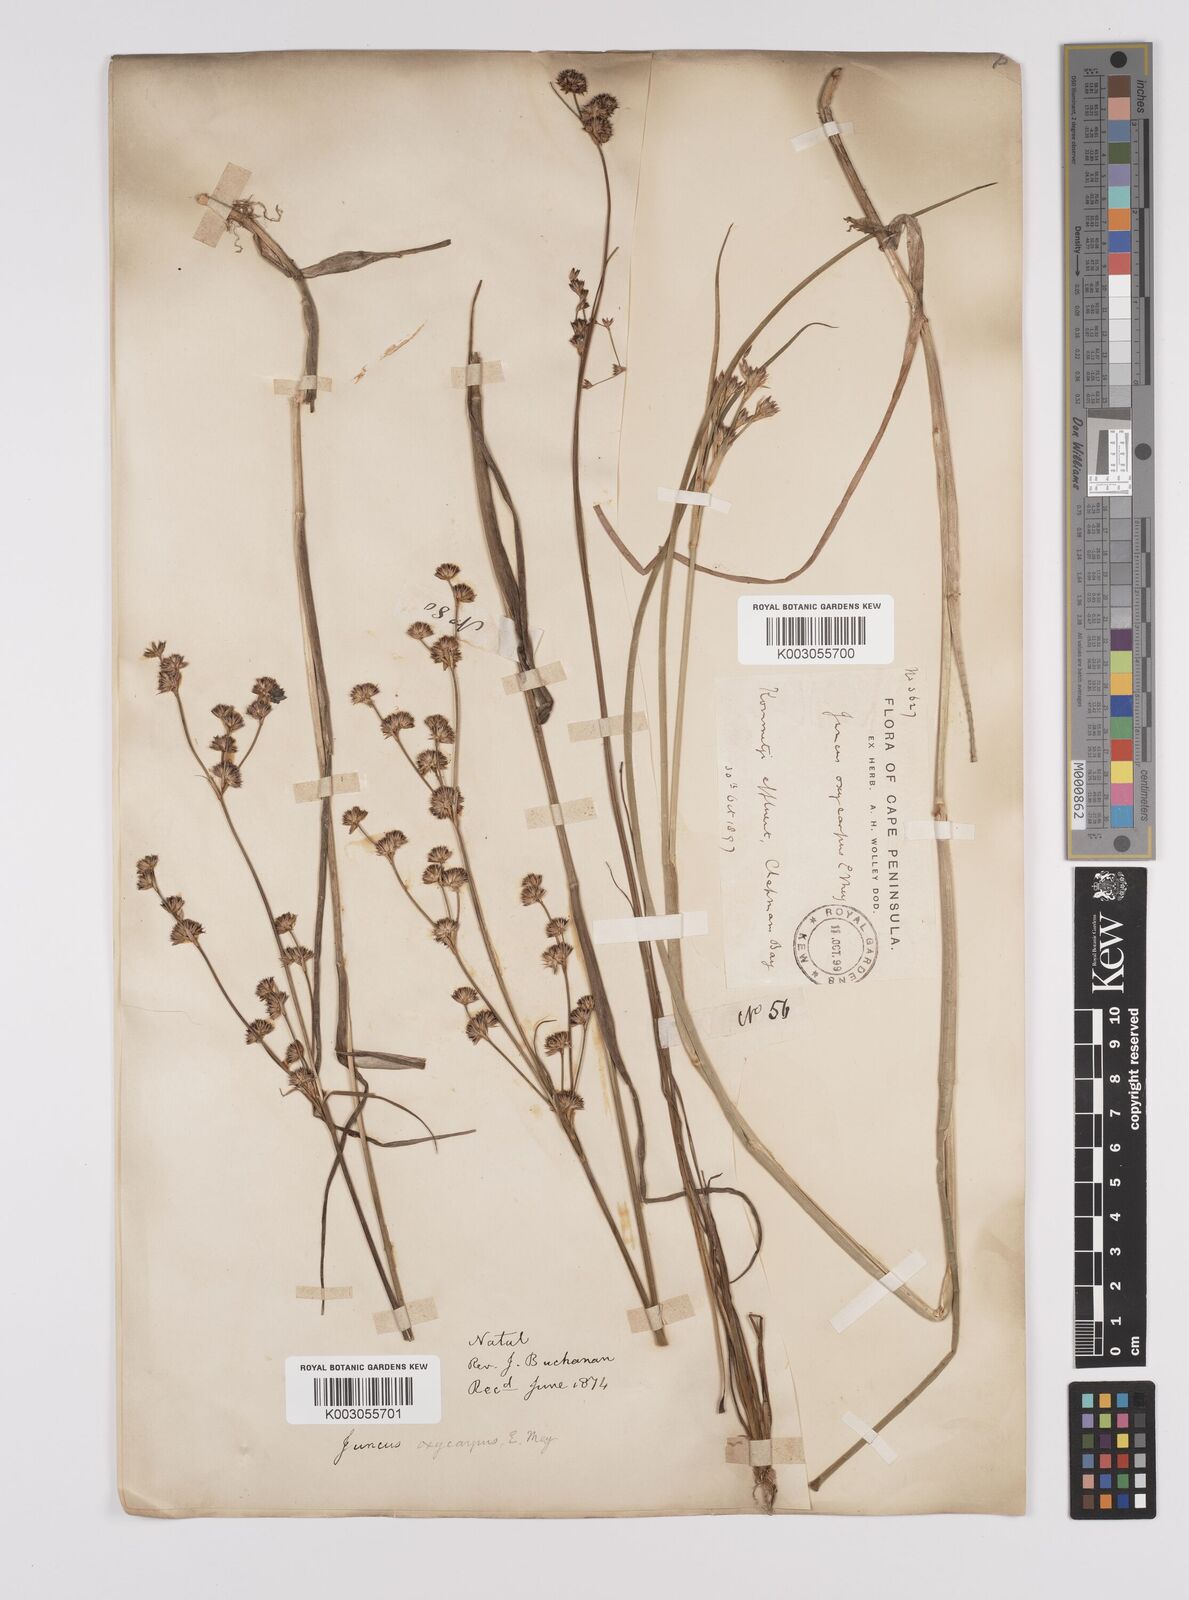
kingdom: Plantae
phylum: Tracheophyta
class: Liliopsida
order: Poales
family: Juncaceae
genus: Juncus
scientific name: Juncus oxycarpus
